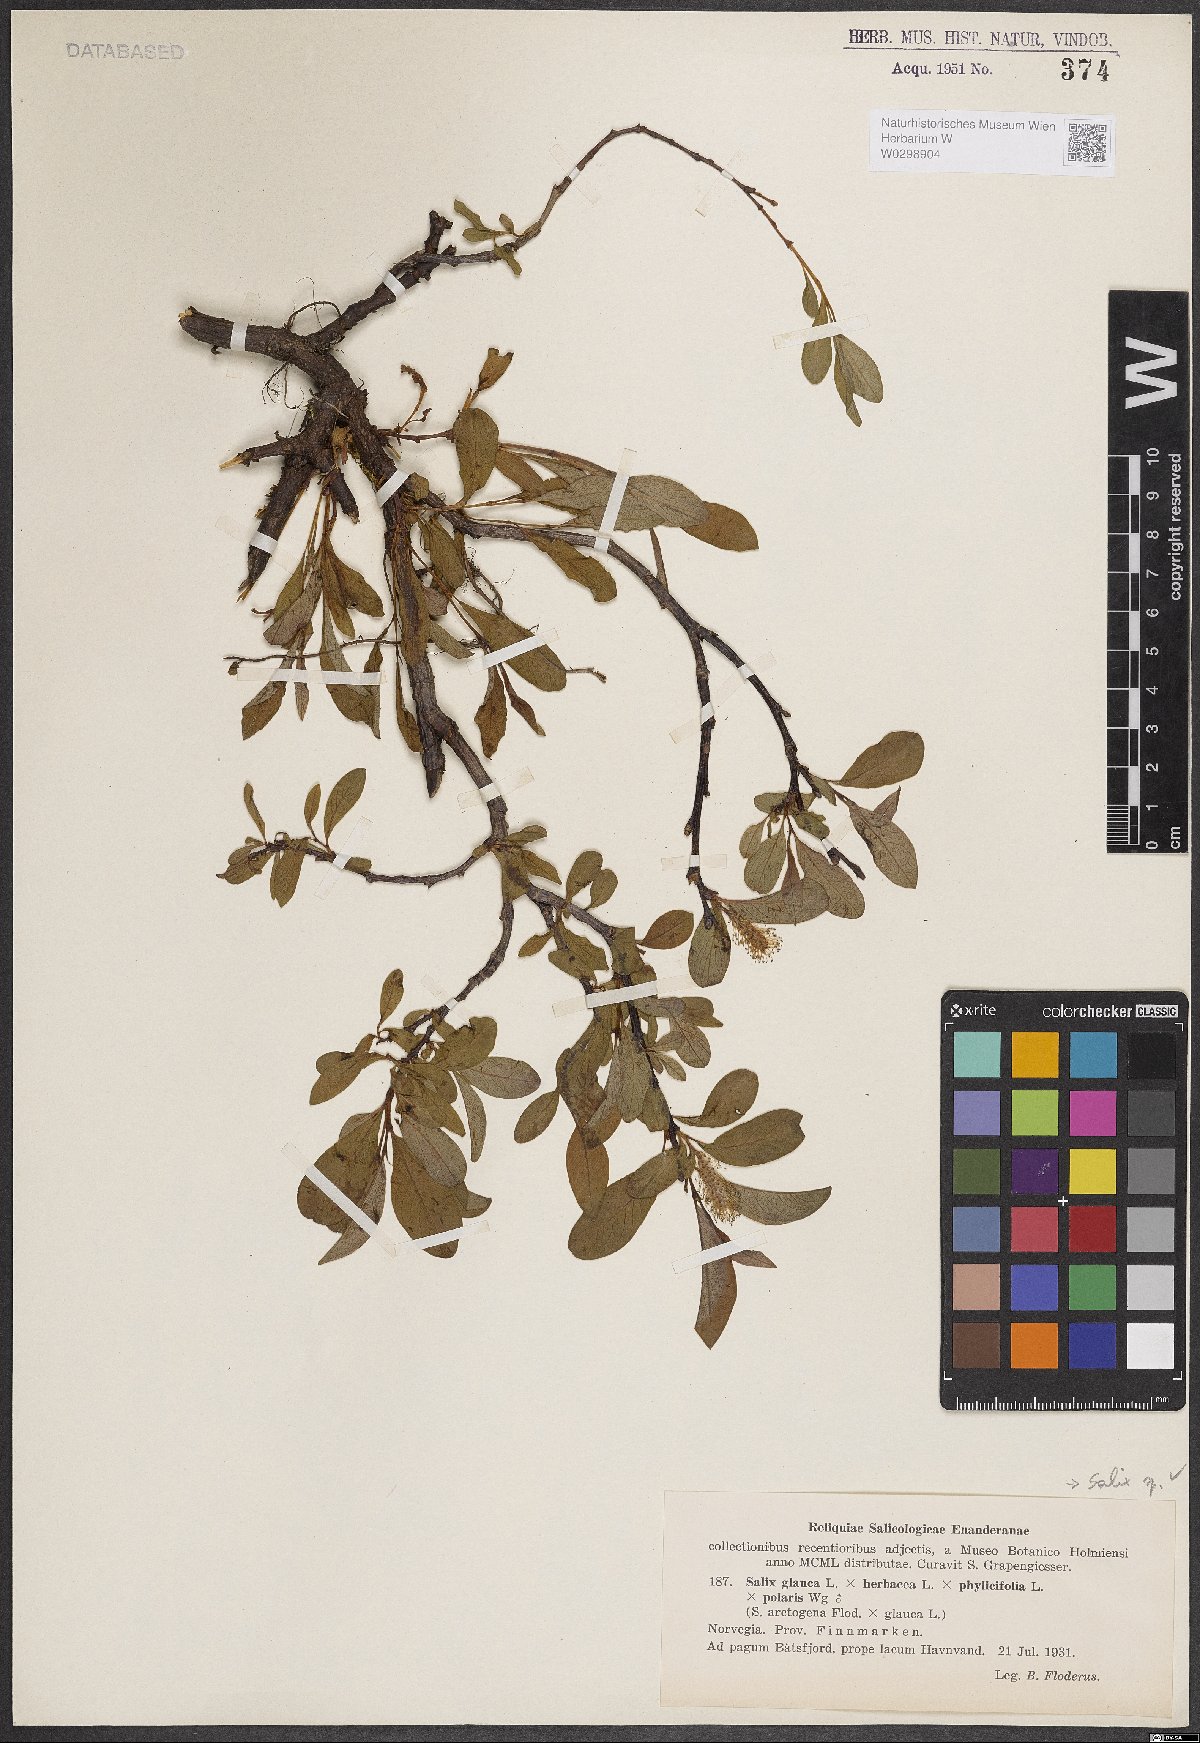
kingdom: Plantae
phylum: Tracheophyta
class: Magnoliopsida
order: Malpighiales
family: Salicaceae
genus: Salix
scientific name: Salix
